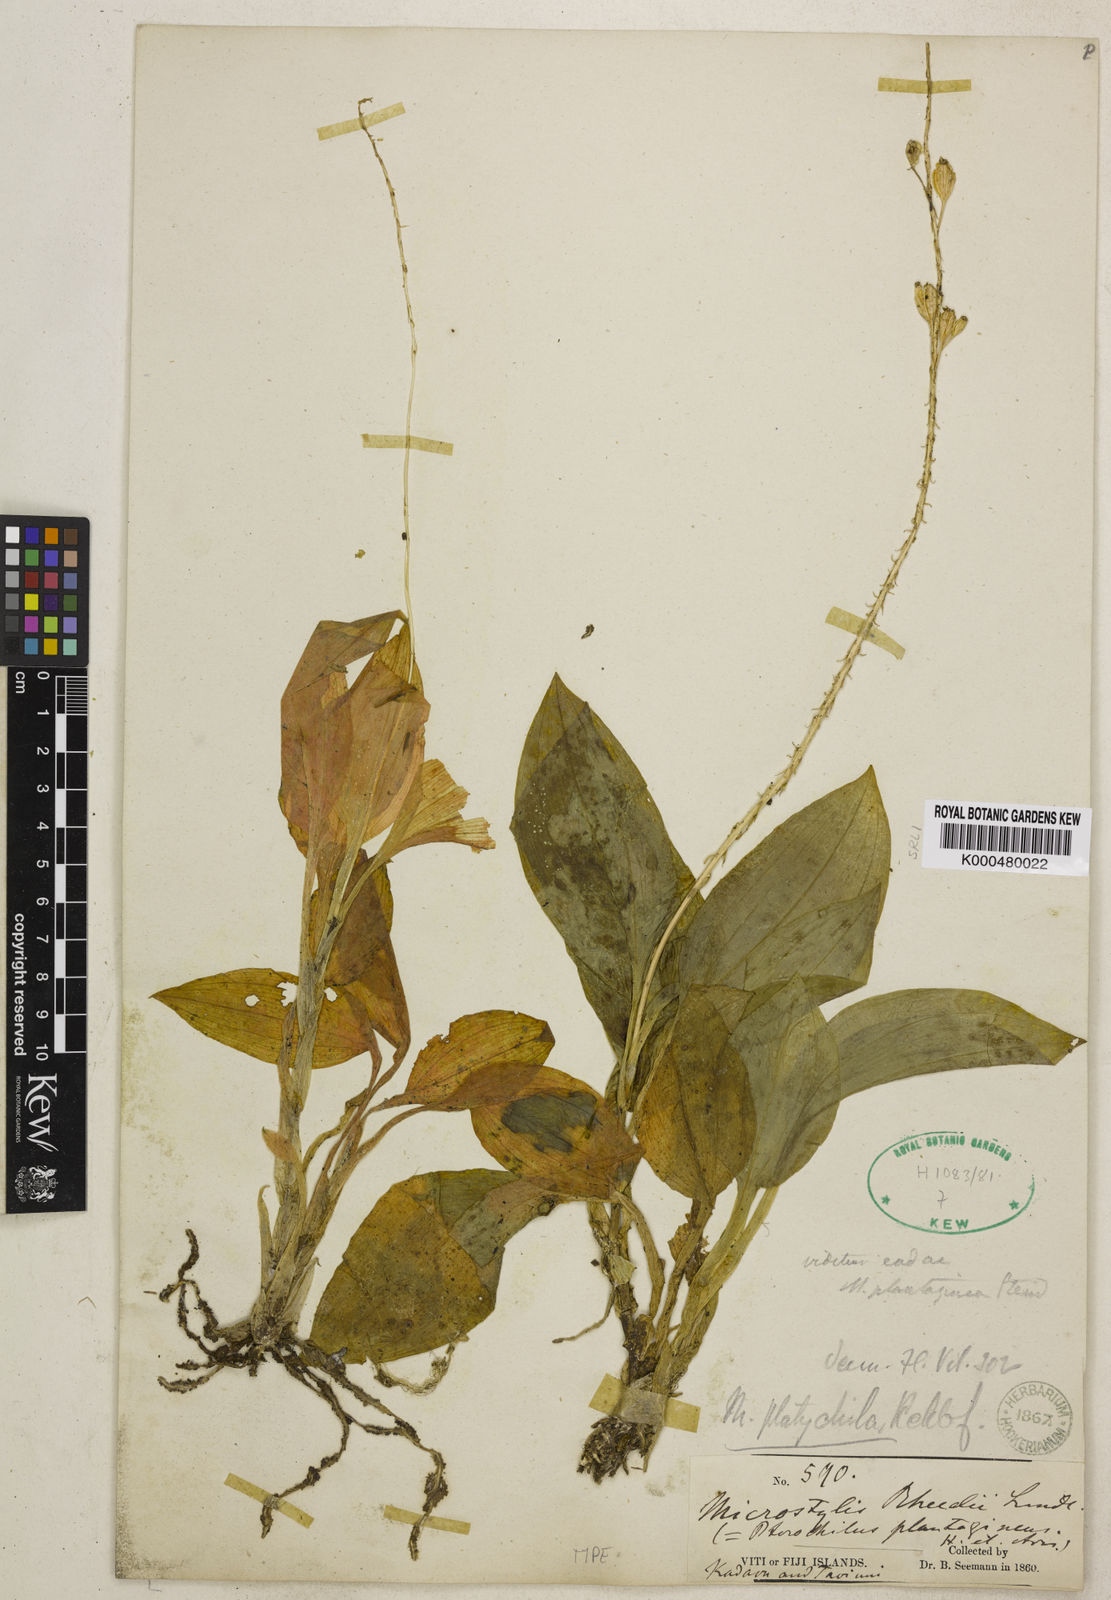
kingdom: Plantae
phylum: Tracheophyta
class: Liliopsida
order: Asparagales
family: Orchidaceae
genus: Crepidium
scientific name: Crepidium platychilum
